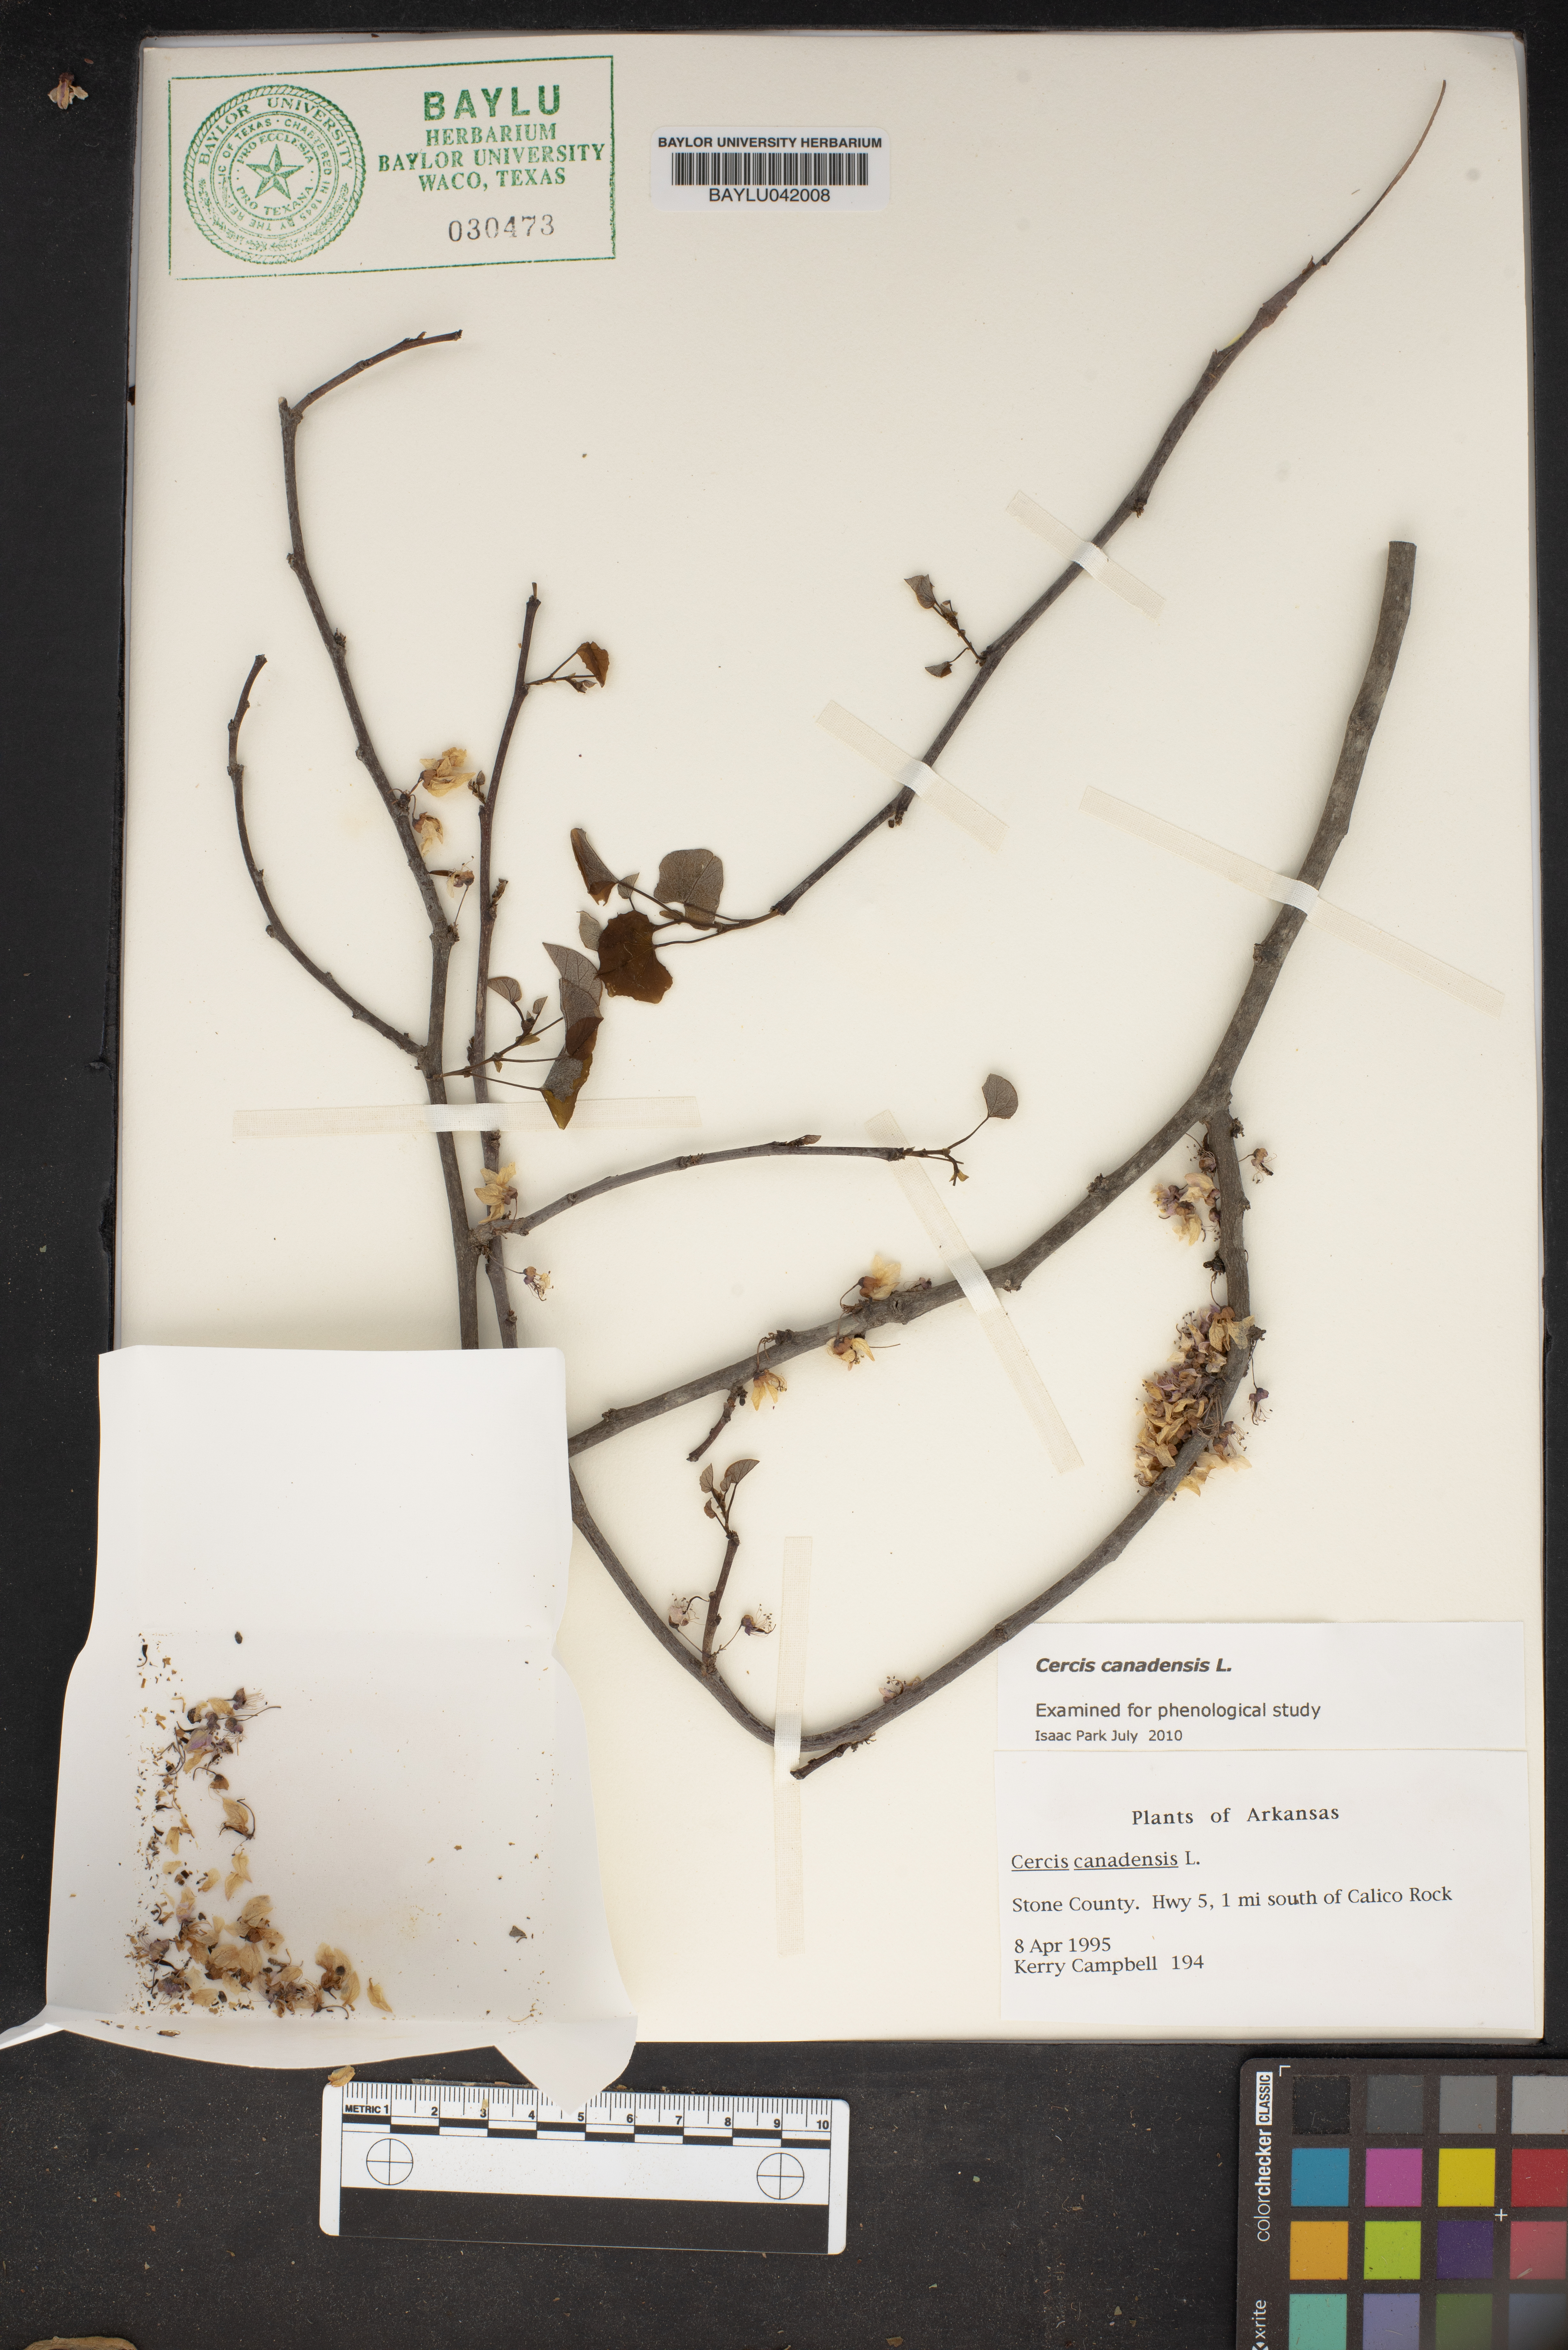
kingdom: Plantae
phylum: Tracheophyta
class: Magnoliopsida
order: Fabales
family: Fabaceae
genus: Cercis
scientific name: Cercis canadensis
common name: Eastern redbud
